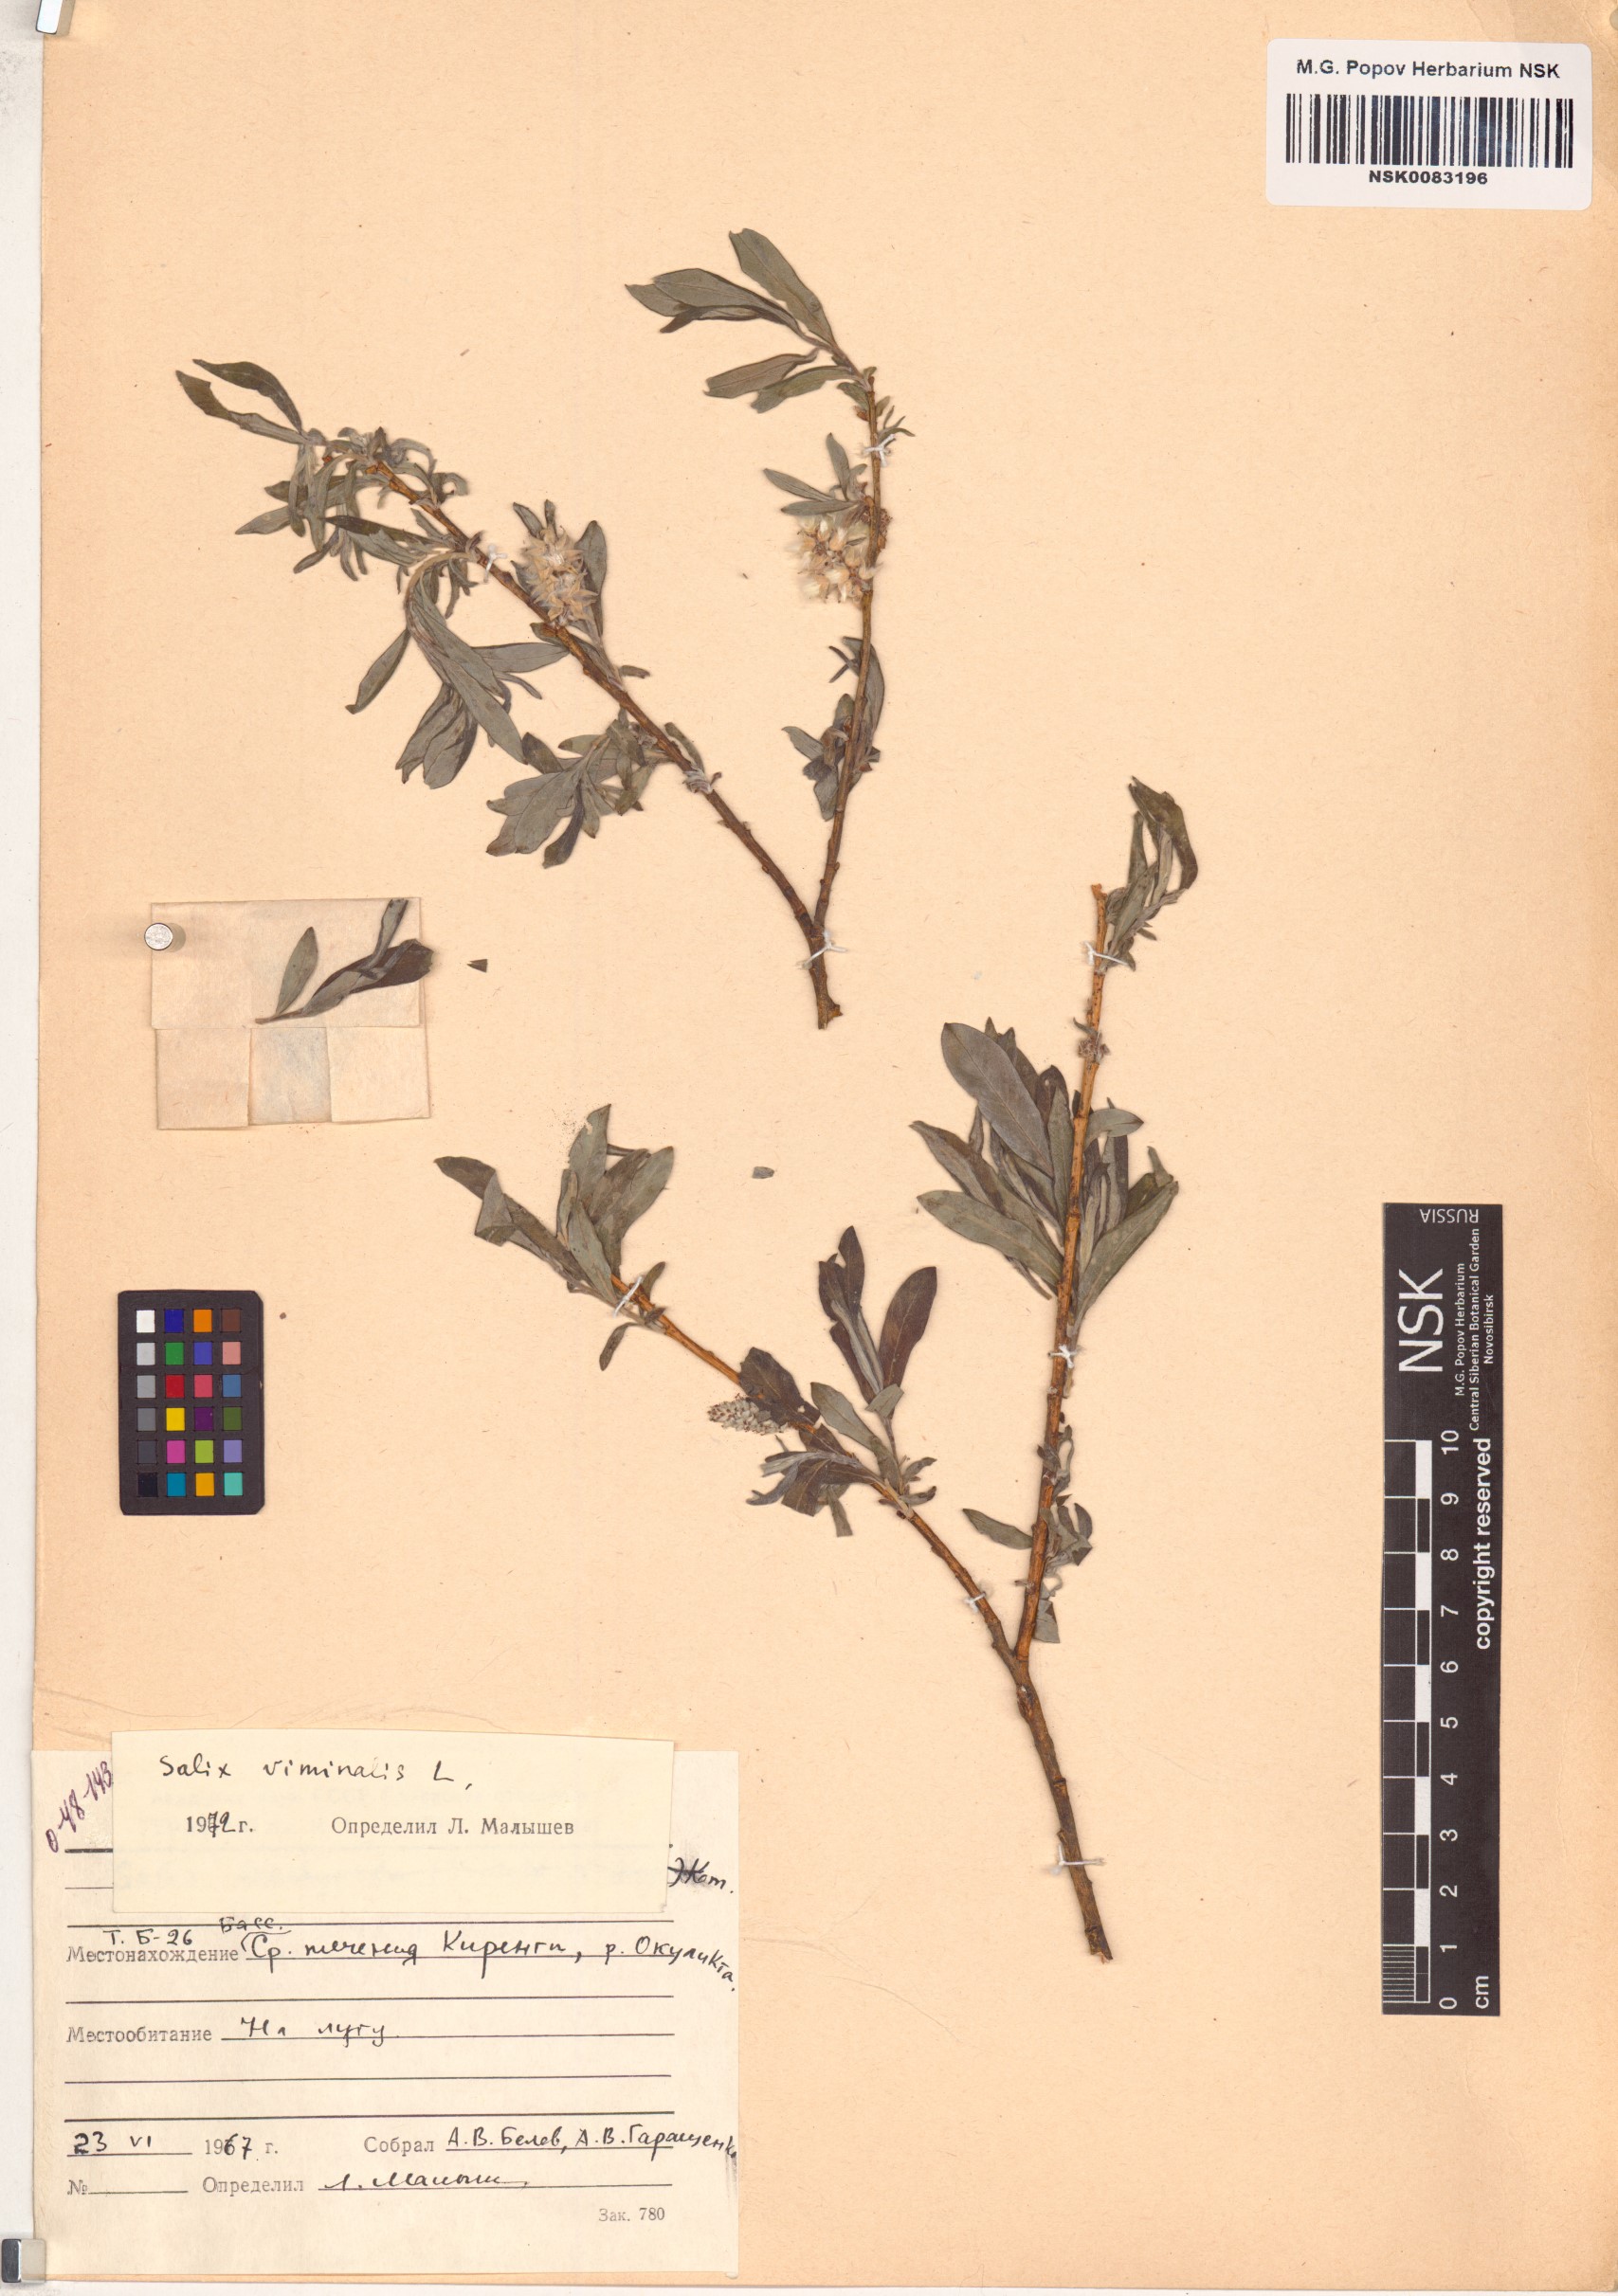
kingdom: Plantae
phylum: Tracheophyta
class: Magnoliopsida
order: Malpighiales
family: Salicaceae
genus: Salix
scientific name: Salix viminalis
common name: Osier
